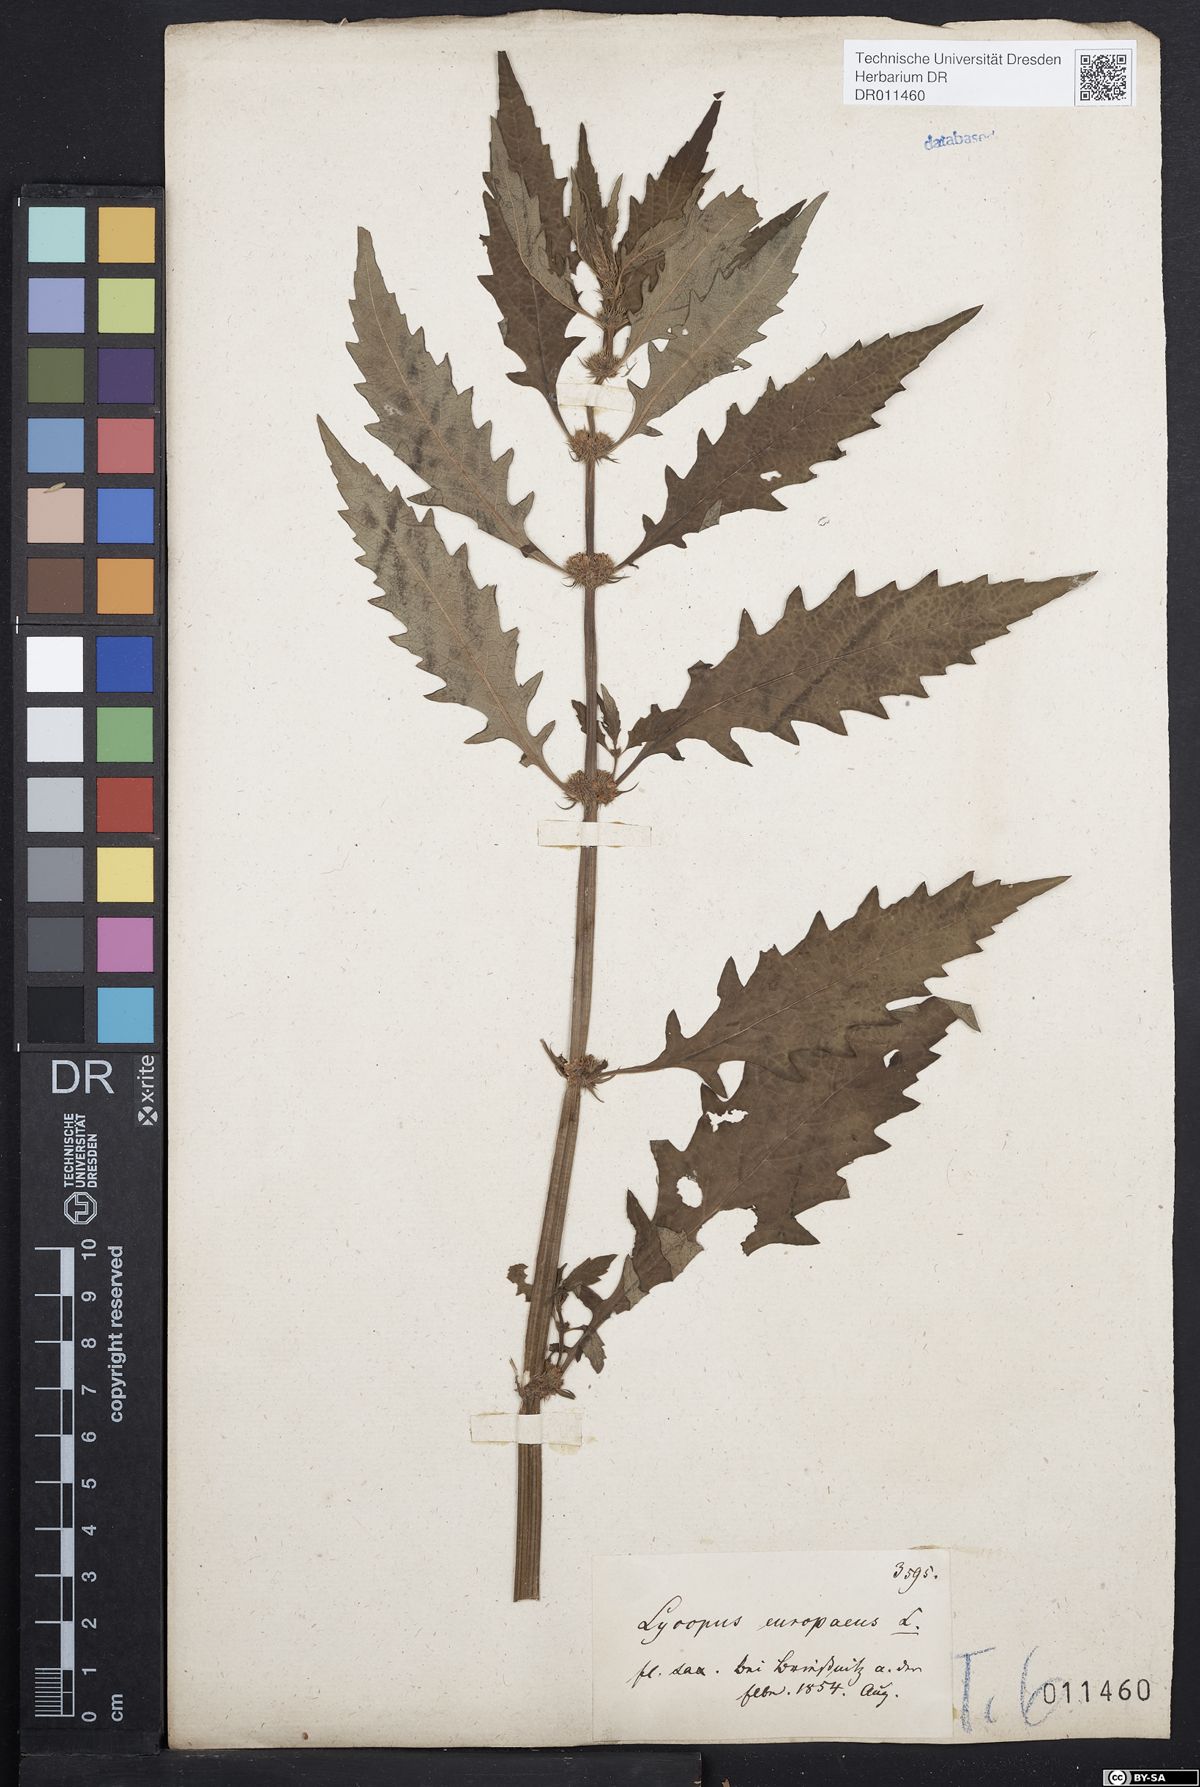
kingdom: Plantae
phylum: Tracheophyta
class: Magnoliopsida
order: Lamiales
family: Lamiaceae
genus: Lycopus
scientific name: Lycopus europaeus
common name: European bugleweed
